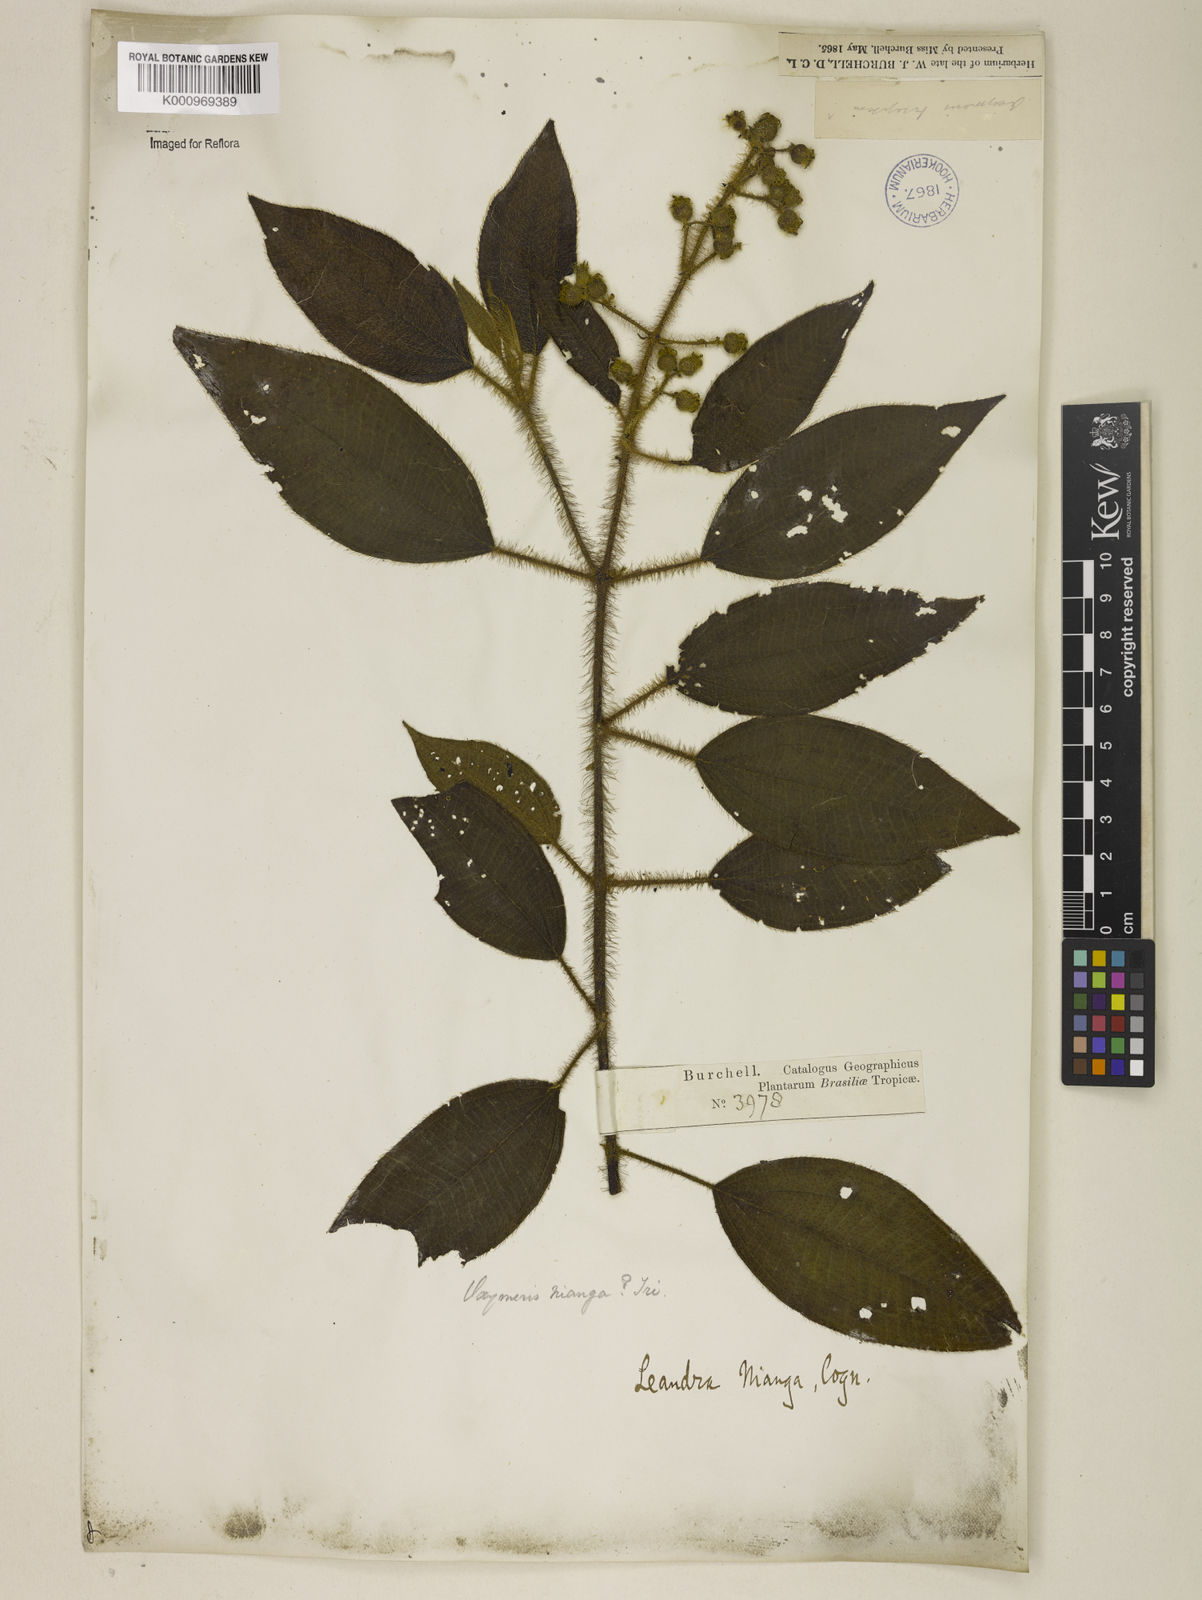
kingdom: Plantae
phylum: Tracheophyta
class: Magnoliopsida
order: Myrtales
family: Melastomataceae
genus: Miconia
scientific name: Miconia nianga
